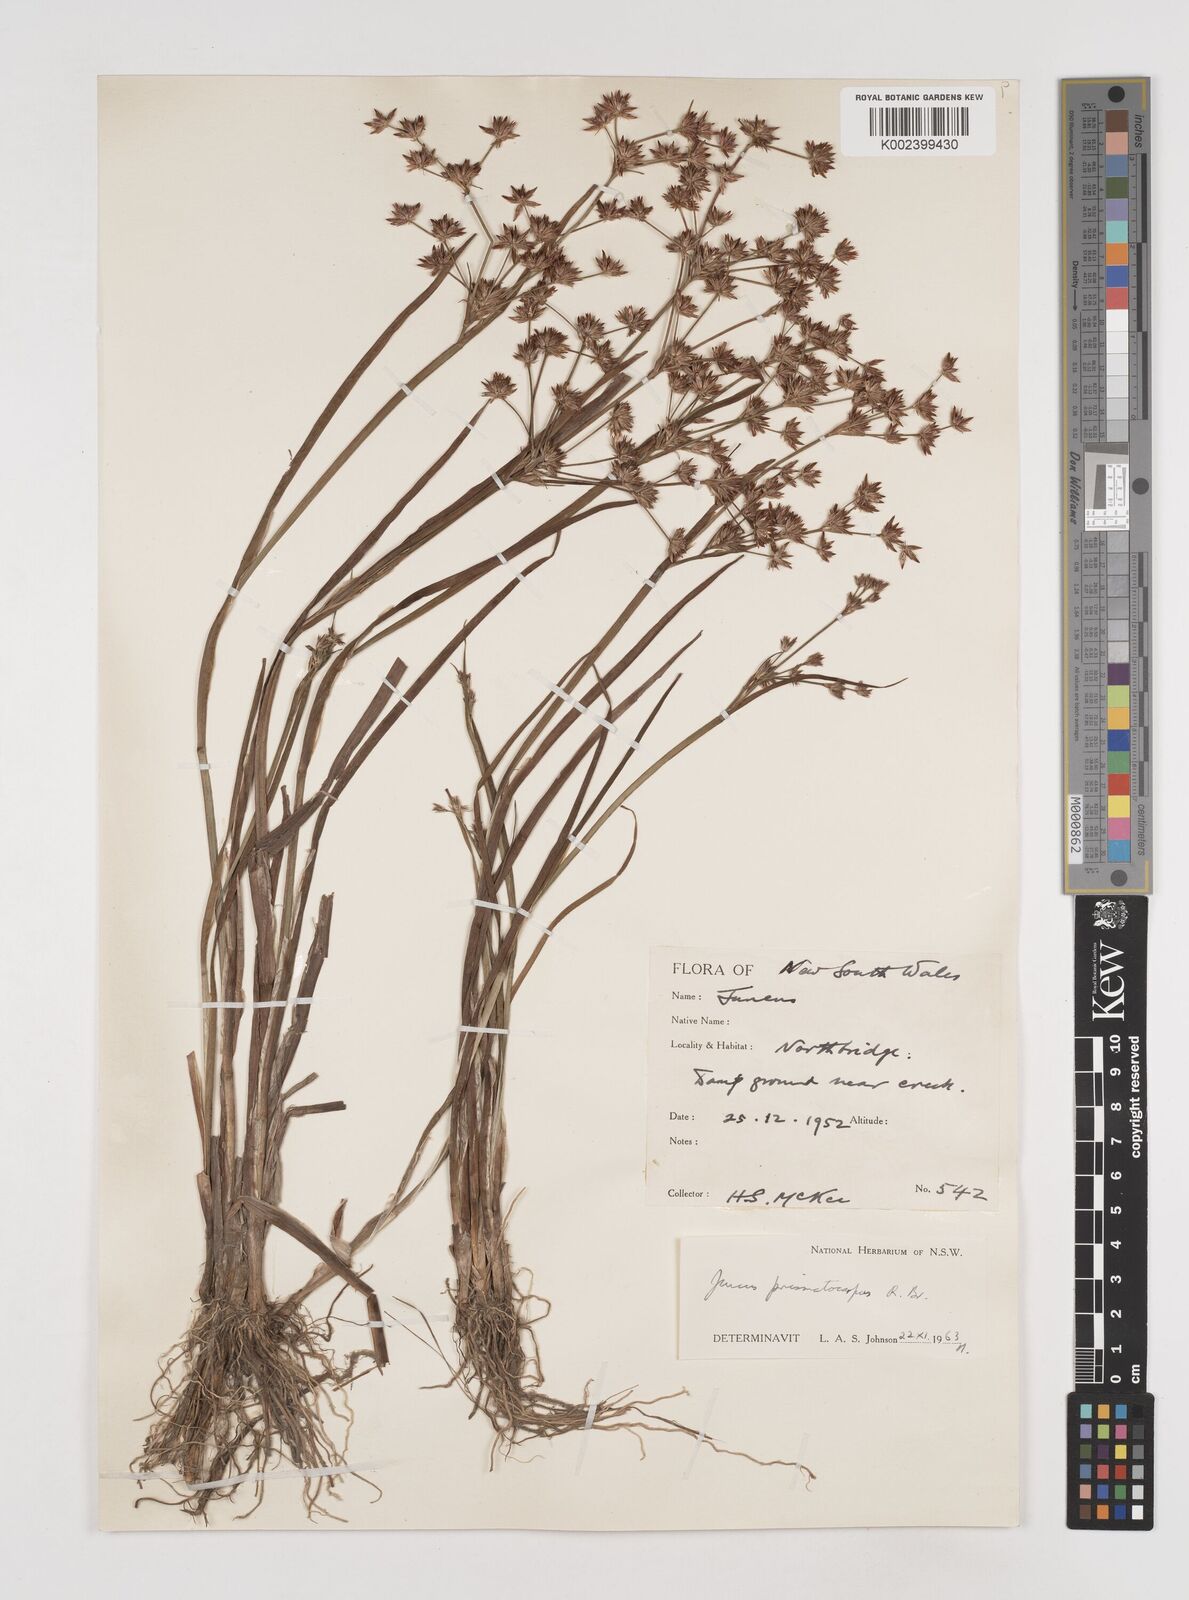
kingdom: Plantae
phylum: Tracheophyta
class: Liliopsida
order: Poales
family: Juncaceae
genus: Juncus
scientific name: Juncus prismatocarpus
